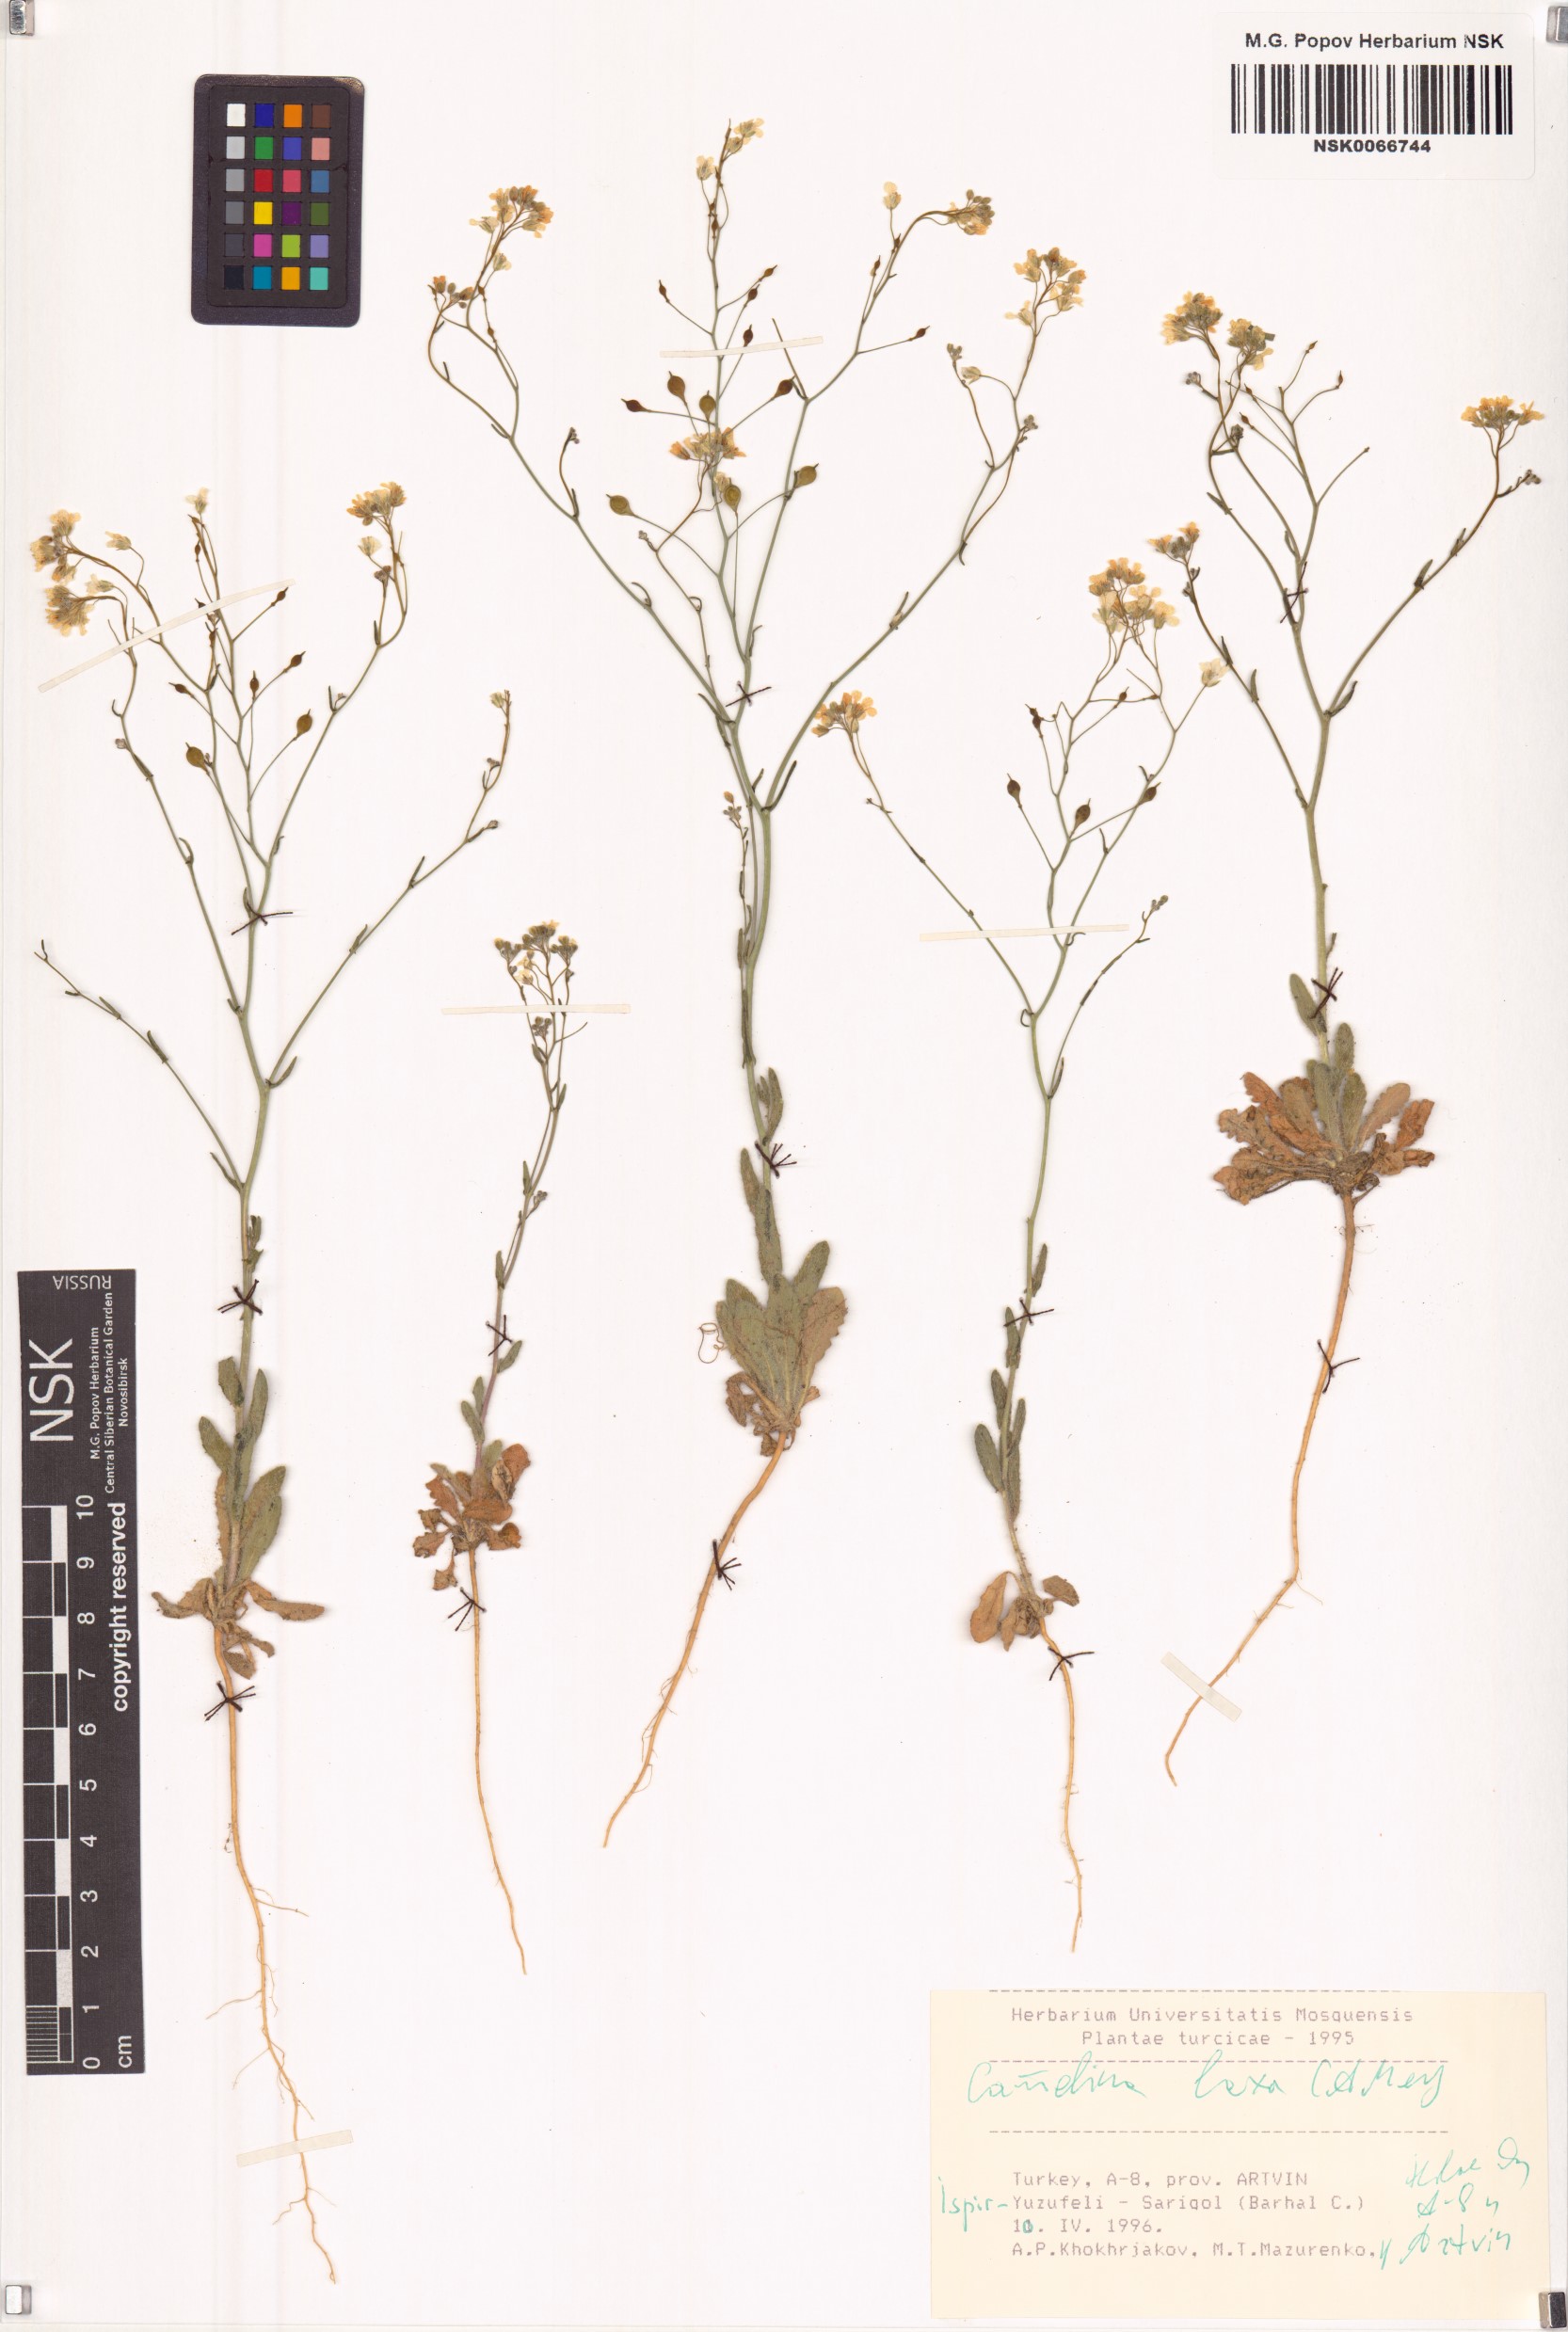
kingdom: Plantae
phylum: Tracheophyta
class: Magnoliopsida
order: Brassicales
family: Brassicaceae
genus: Camelina
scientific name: Camelina laxa
